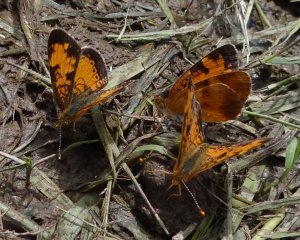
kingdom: Animalia
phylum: Arthropoda
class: Insecta
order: Lepidoptera
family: Nymphalidae
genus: Phyciodes
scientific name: Phyciodes tharos
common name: Northern Crescent
